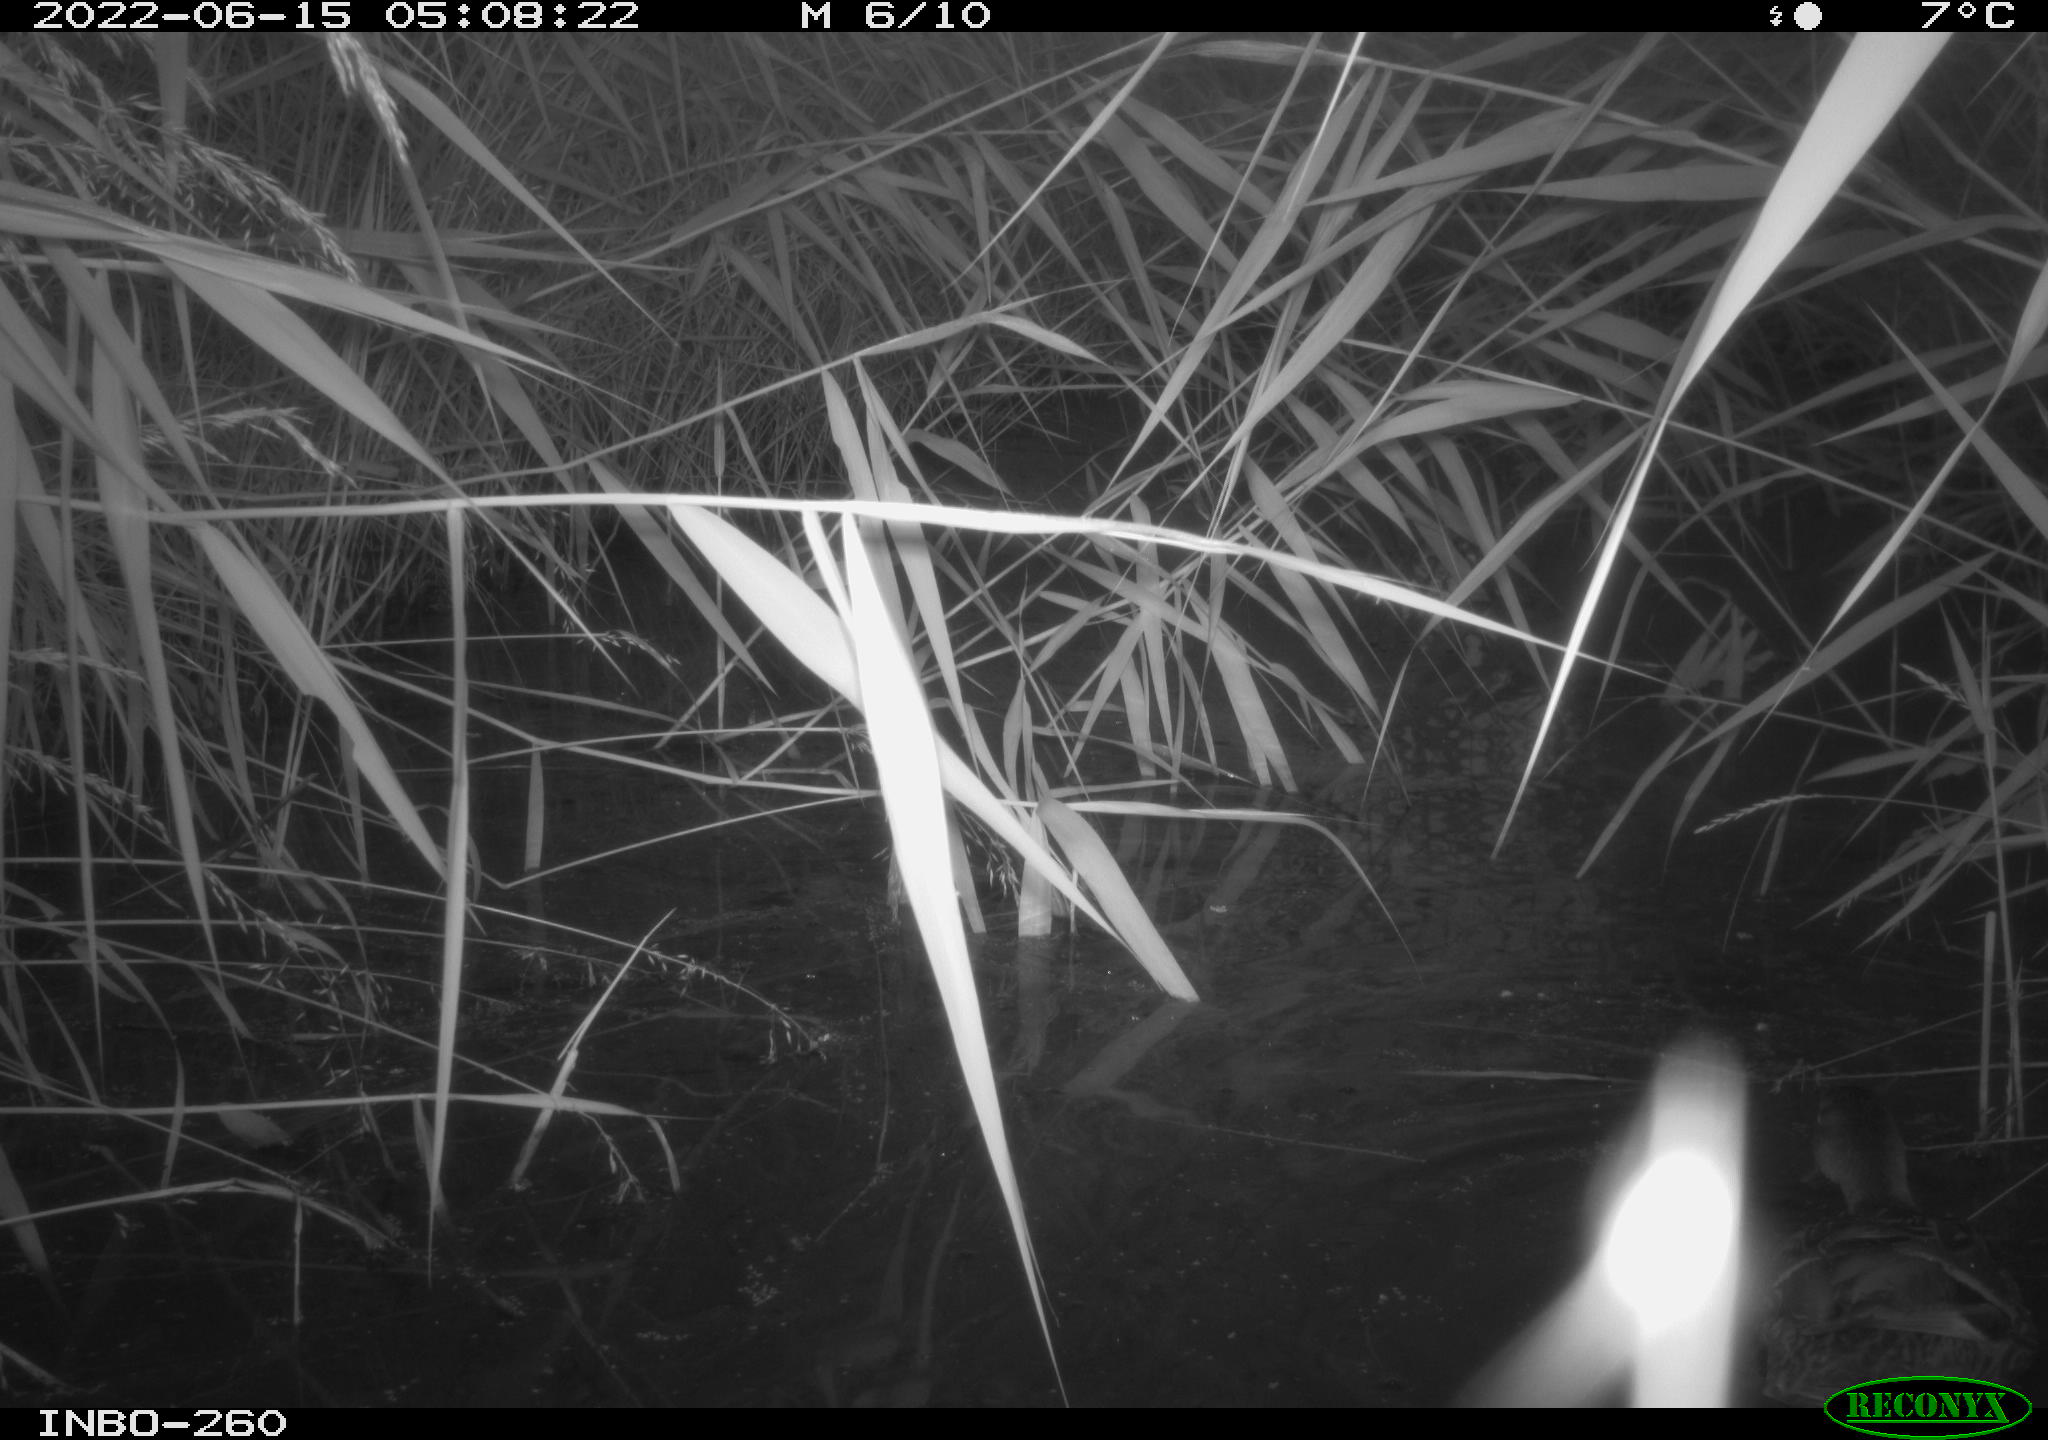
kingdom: Animalia
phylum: Chordata
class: Aves
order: Anseriformes
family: Anatidae
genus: Anas
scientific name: Anas platyrhynchos
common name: Mallard
